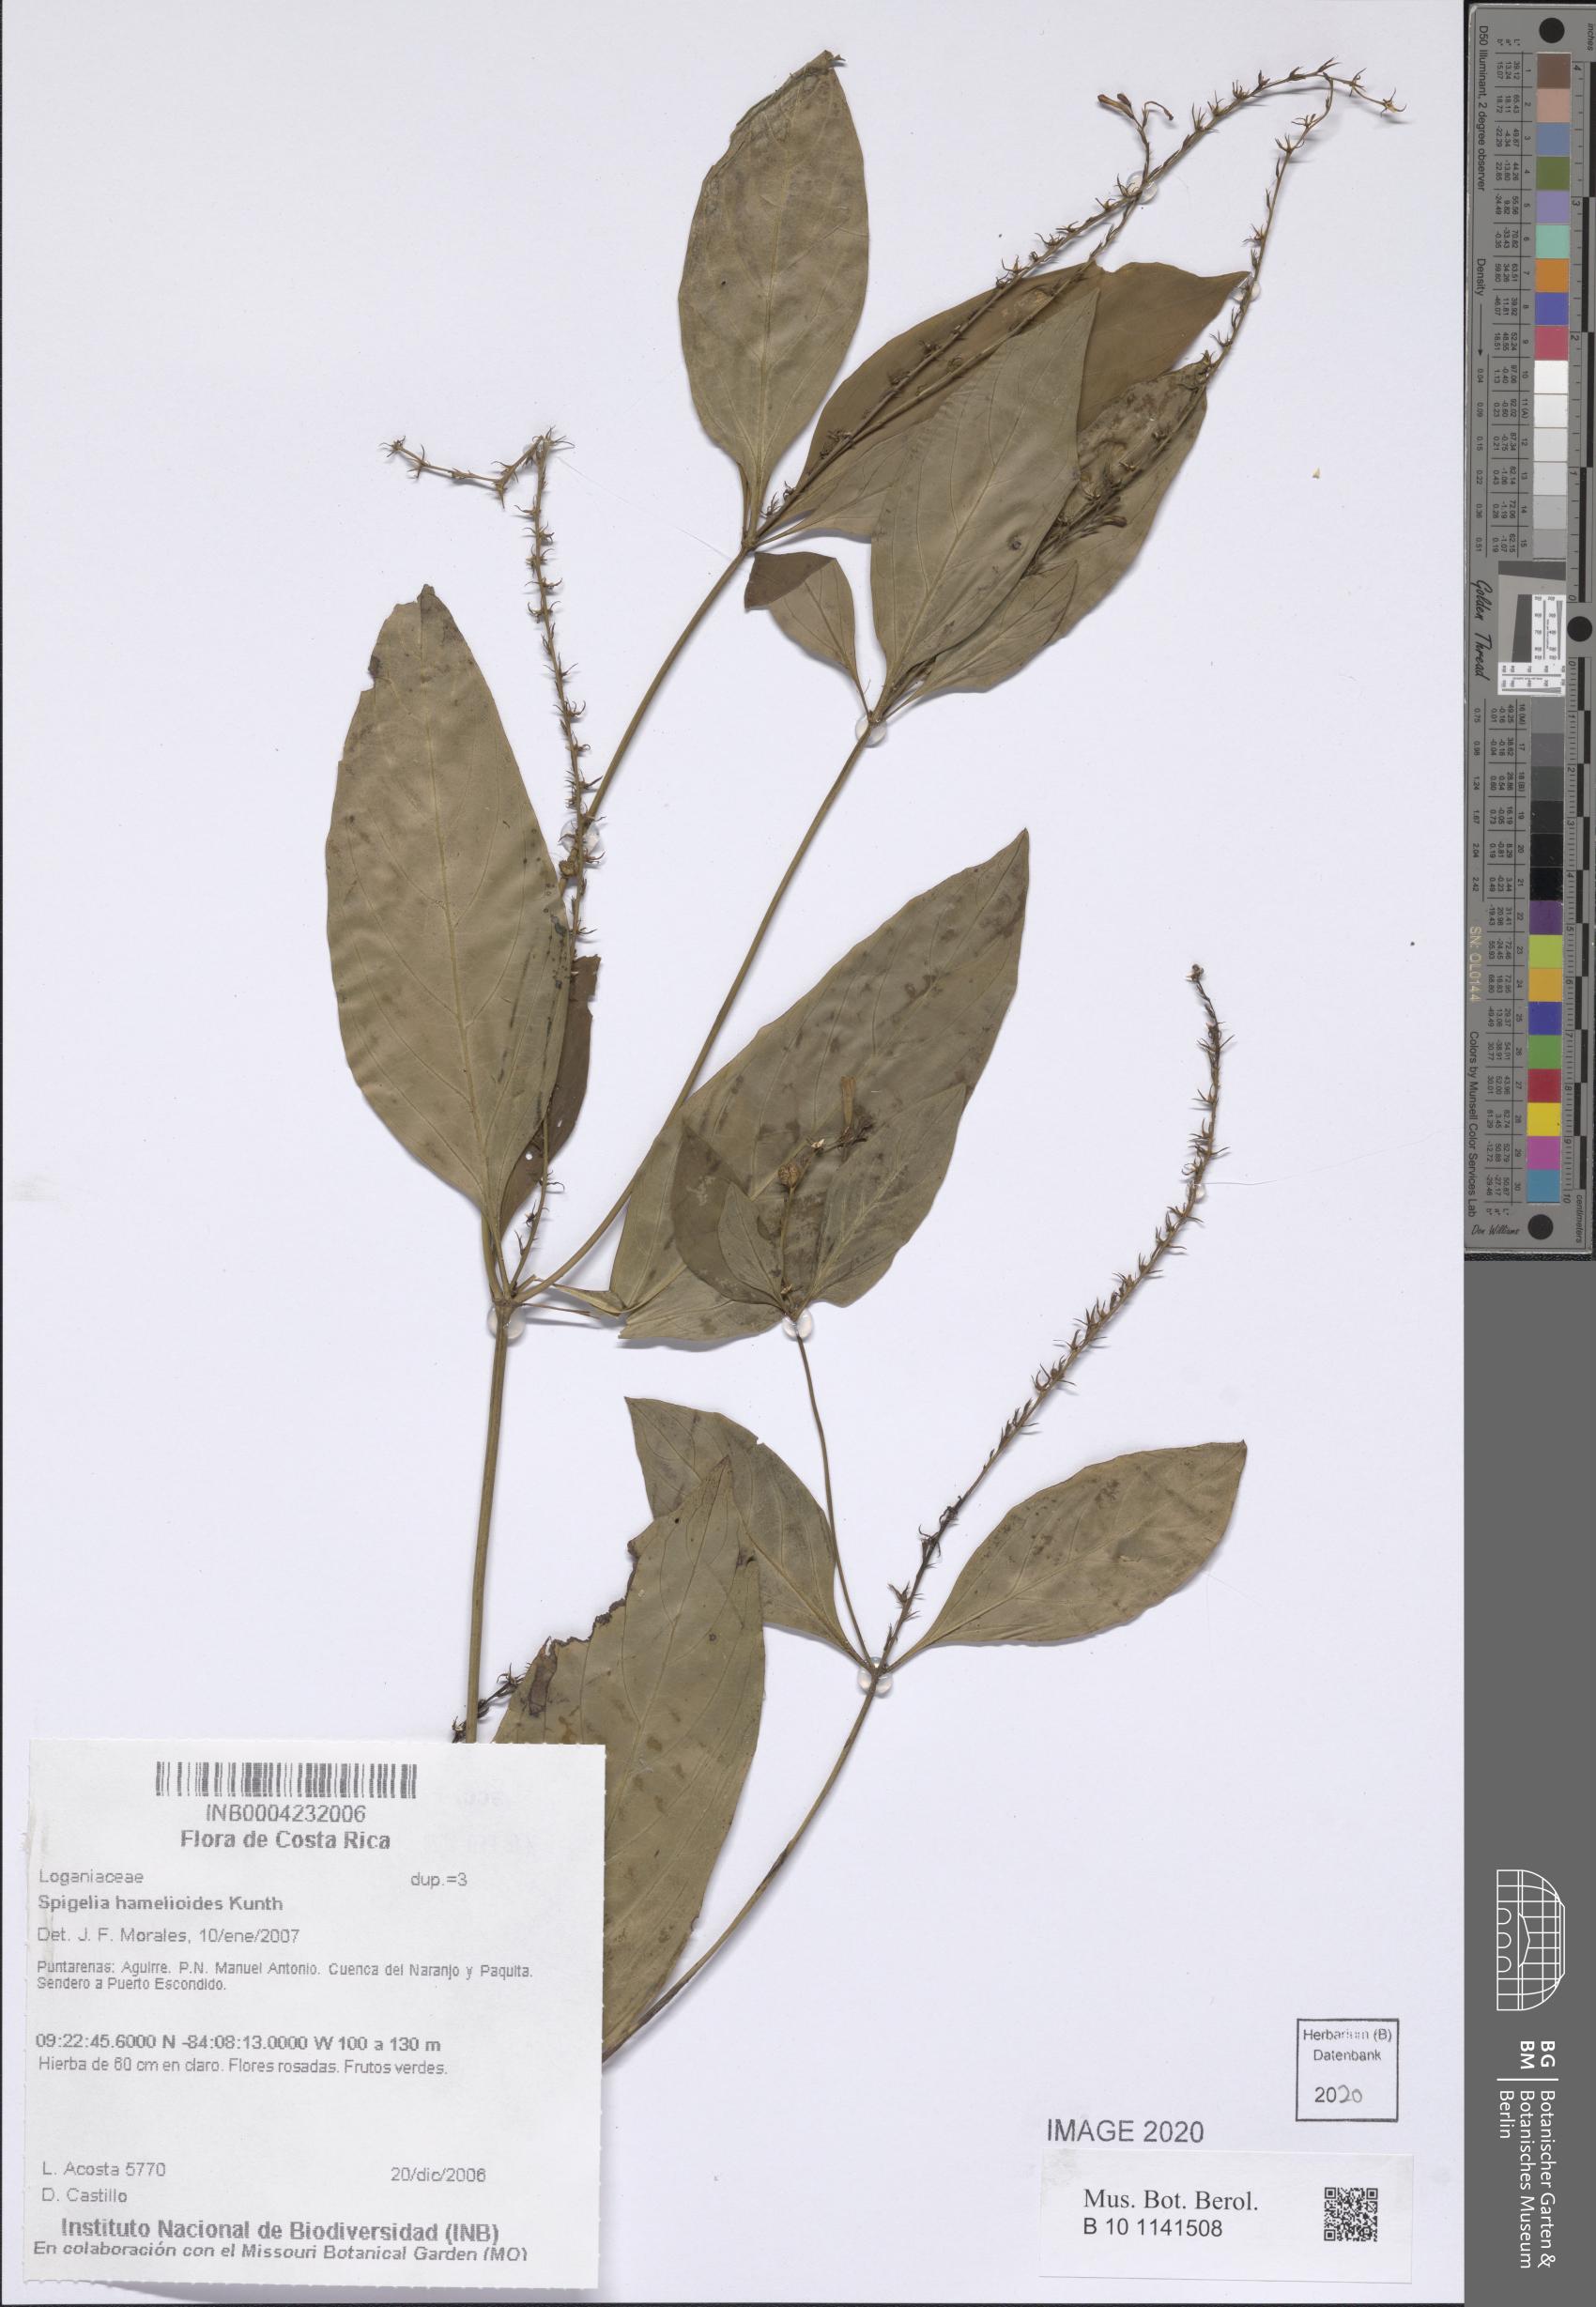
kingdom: Plantae
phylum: Tracheophyta
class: Magnoliopsida
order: Gentianales
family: Loganiaceae
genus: Spigelia
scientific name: Spigelia hamellioides
